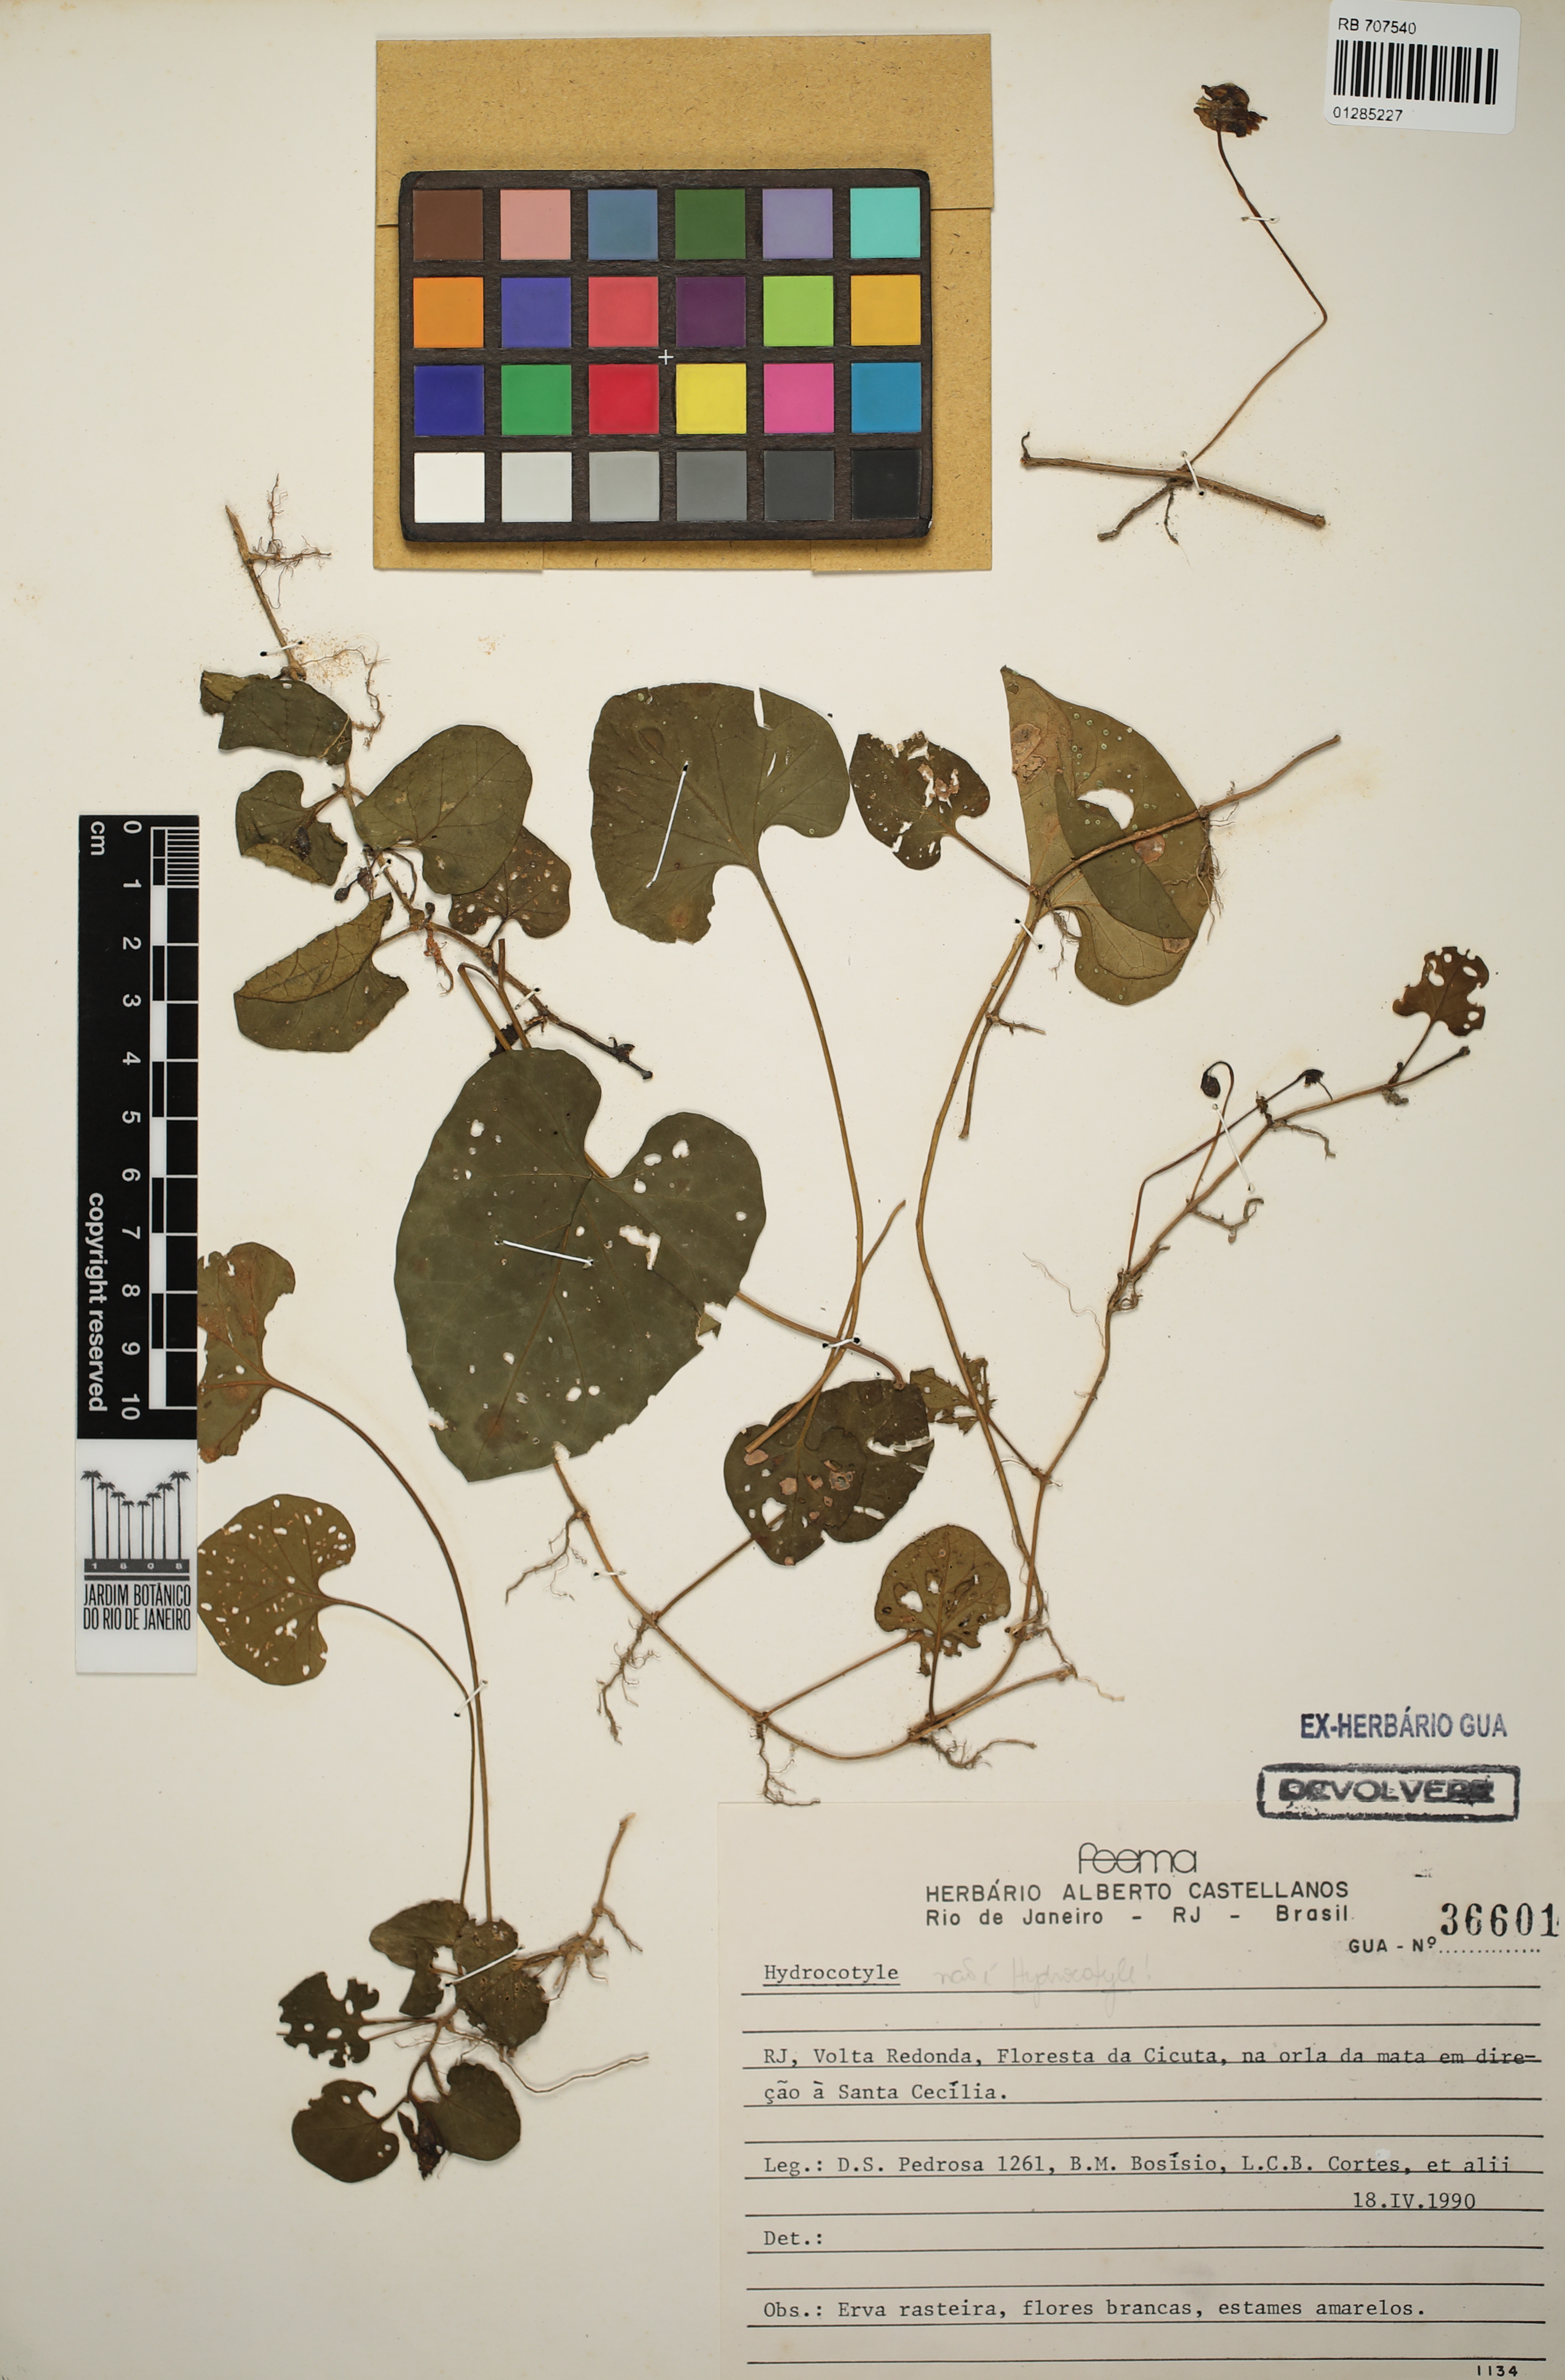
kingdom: Plantae
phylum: Tracheophyta
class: Magnoliopsida
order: Apiales
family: Apiaceae
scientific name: Apiaceae
